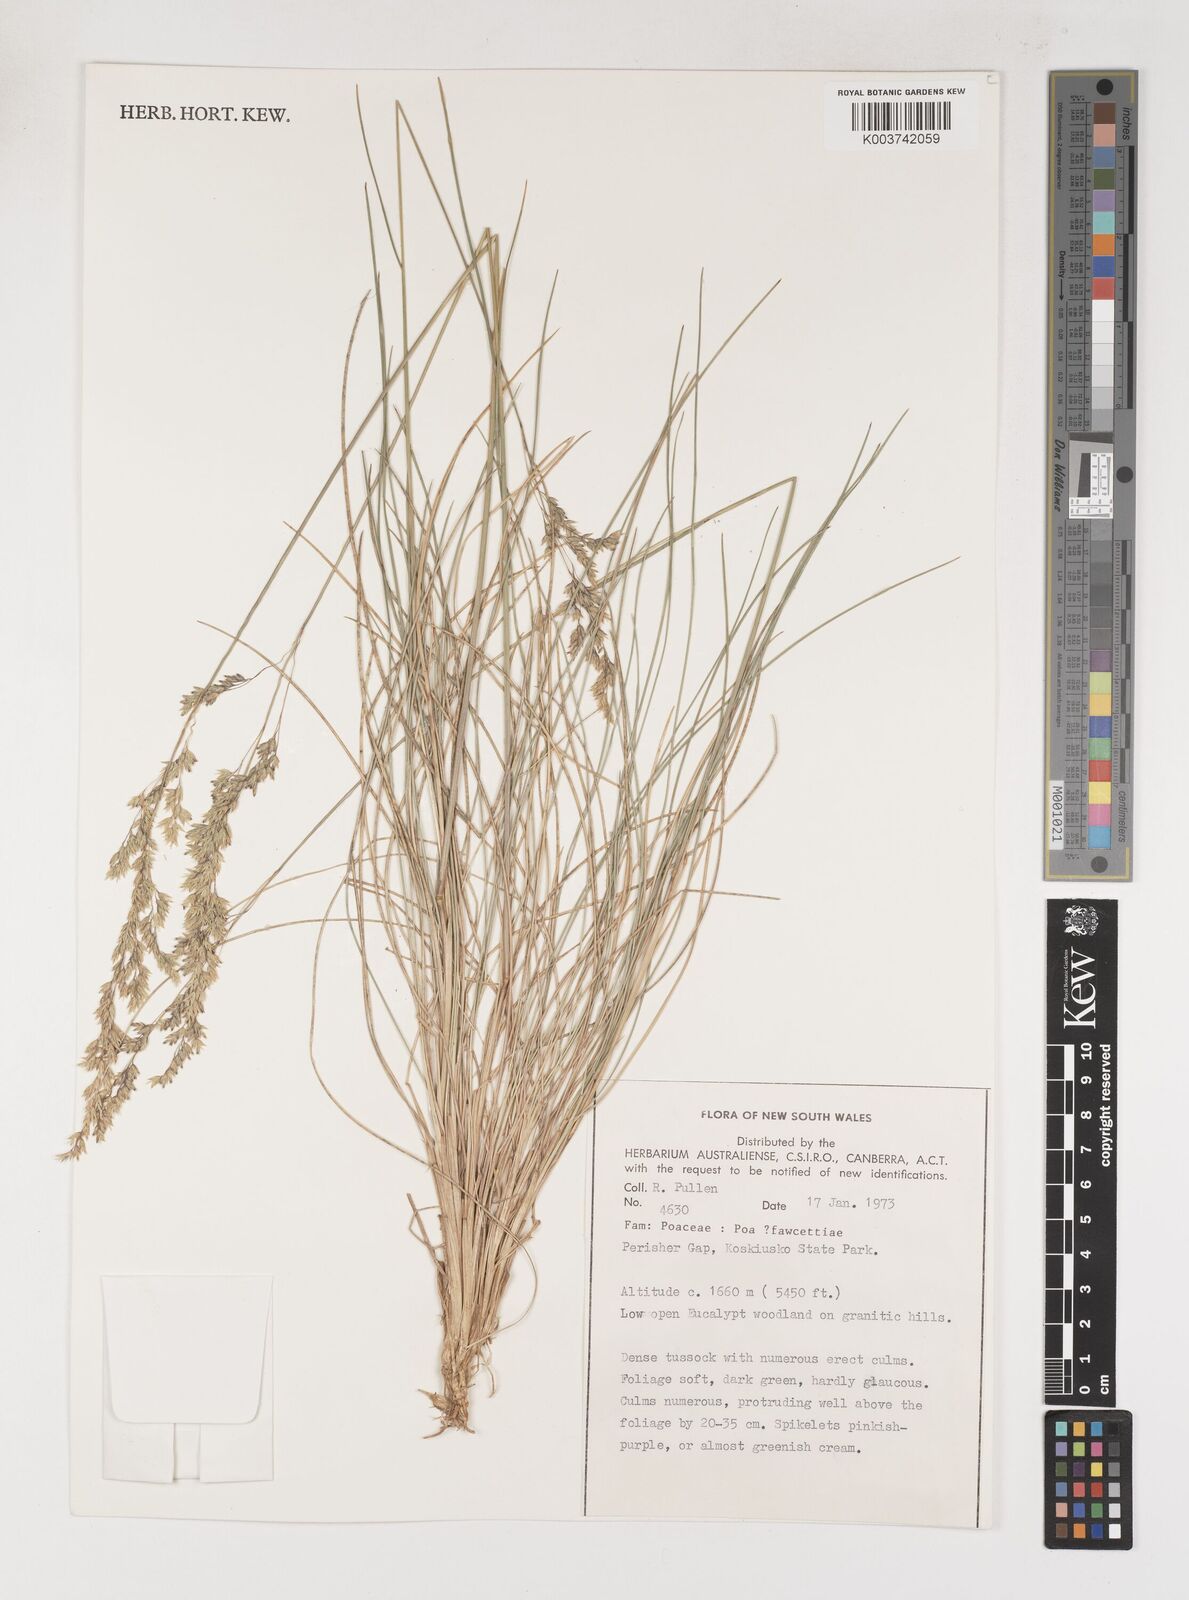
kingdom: Plantae
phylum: Tracheophyta
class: Liliopsida
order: Poales
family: Poaceae
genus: Poa
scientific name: Poa fawcettiae
